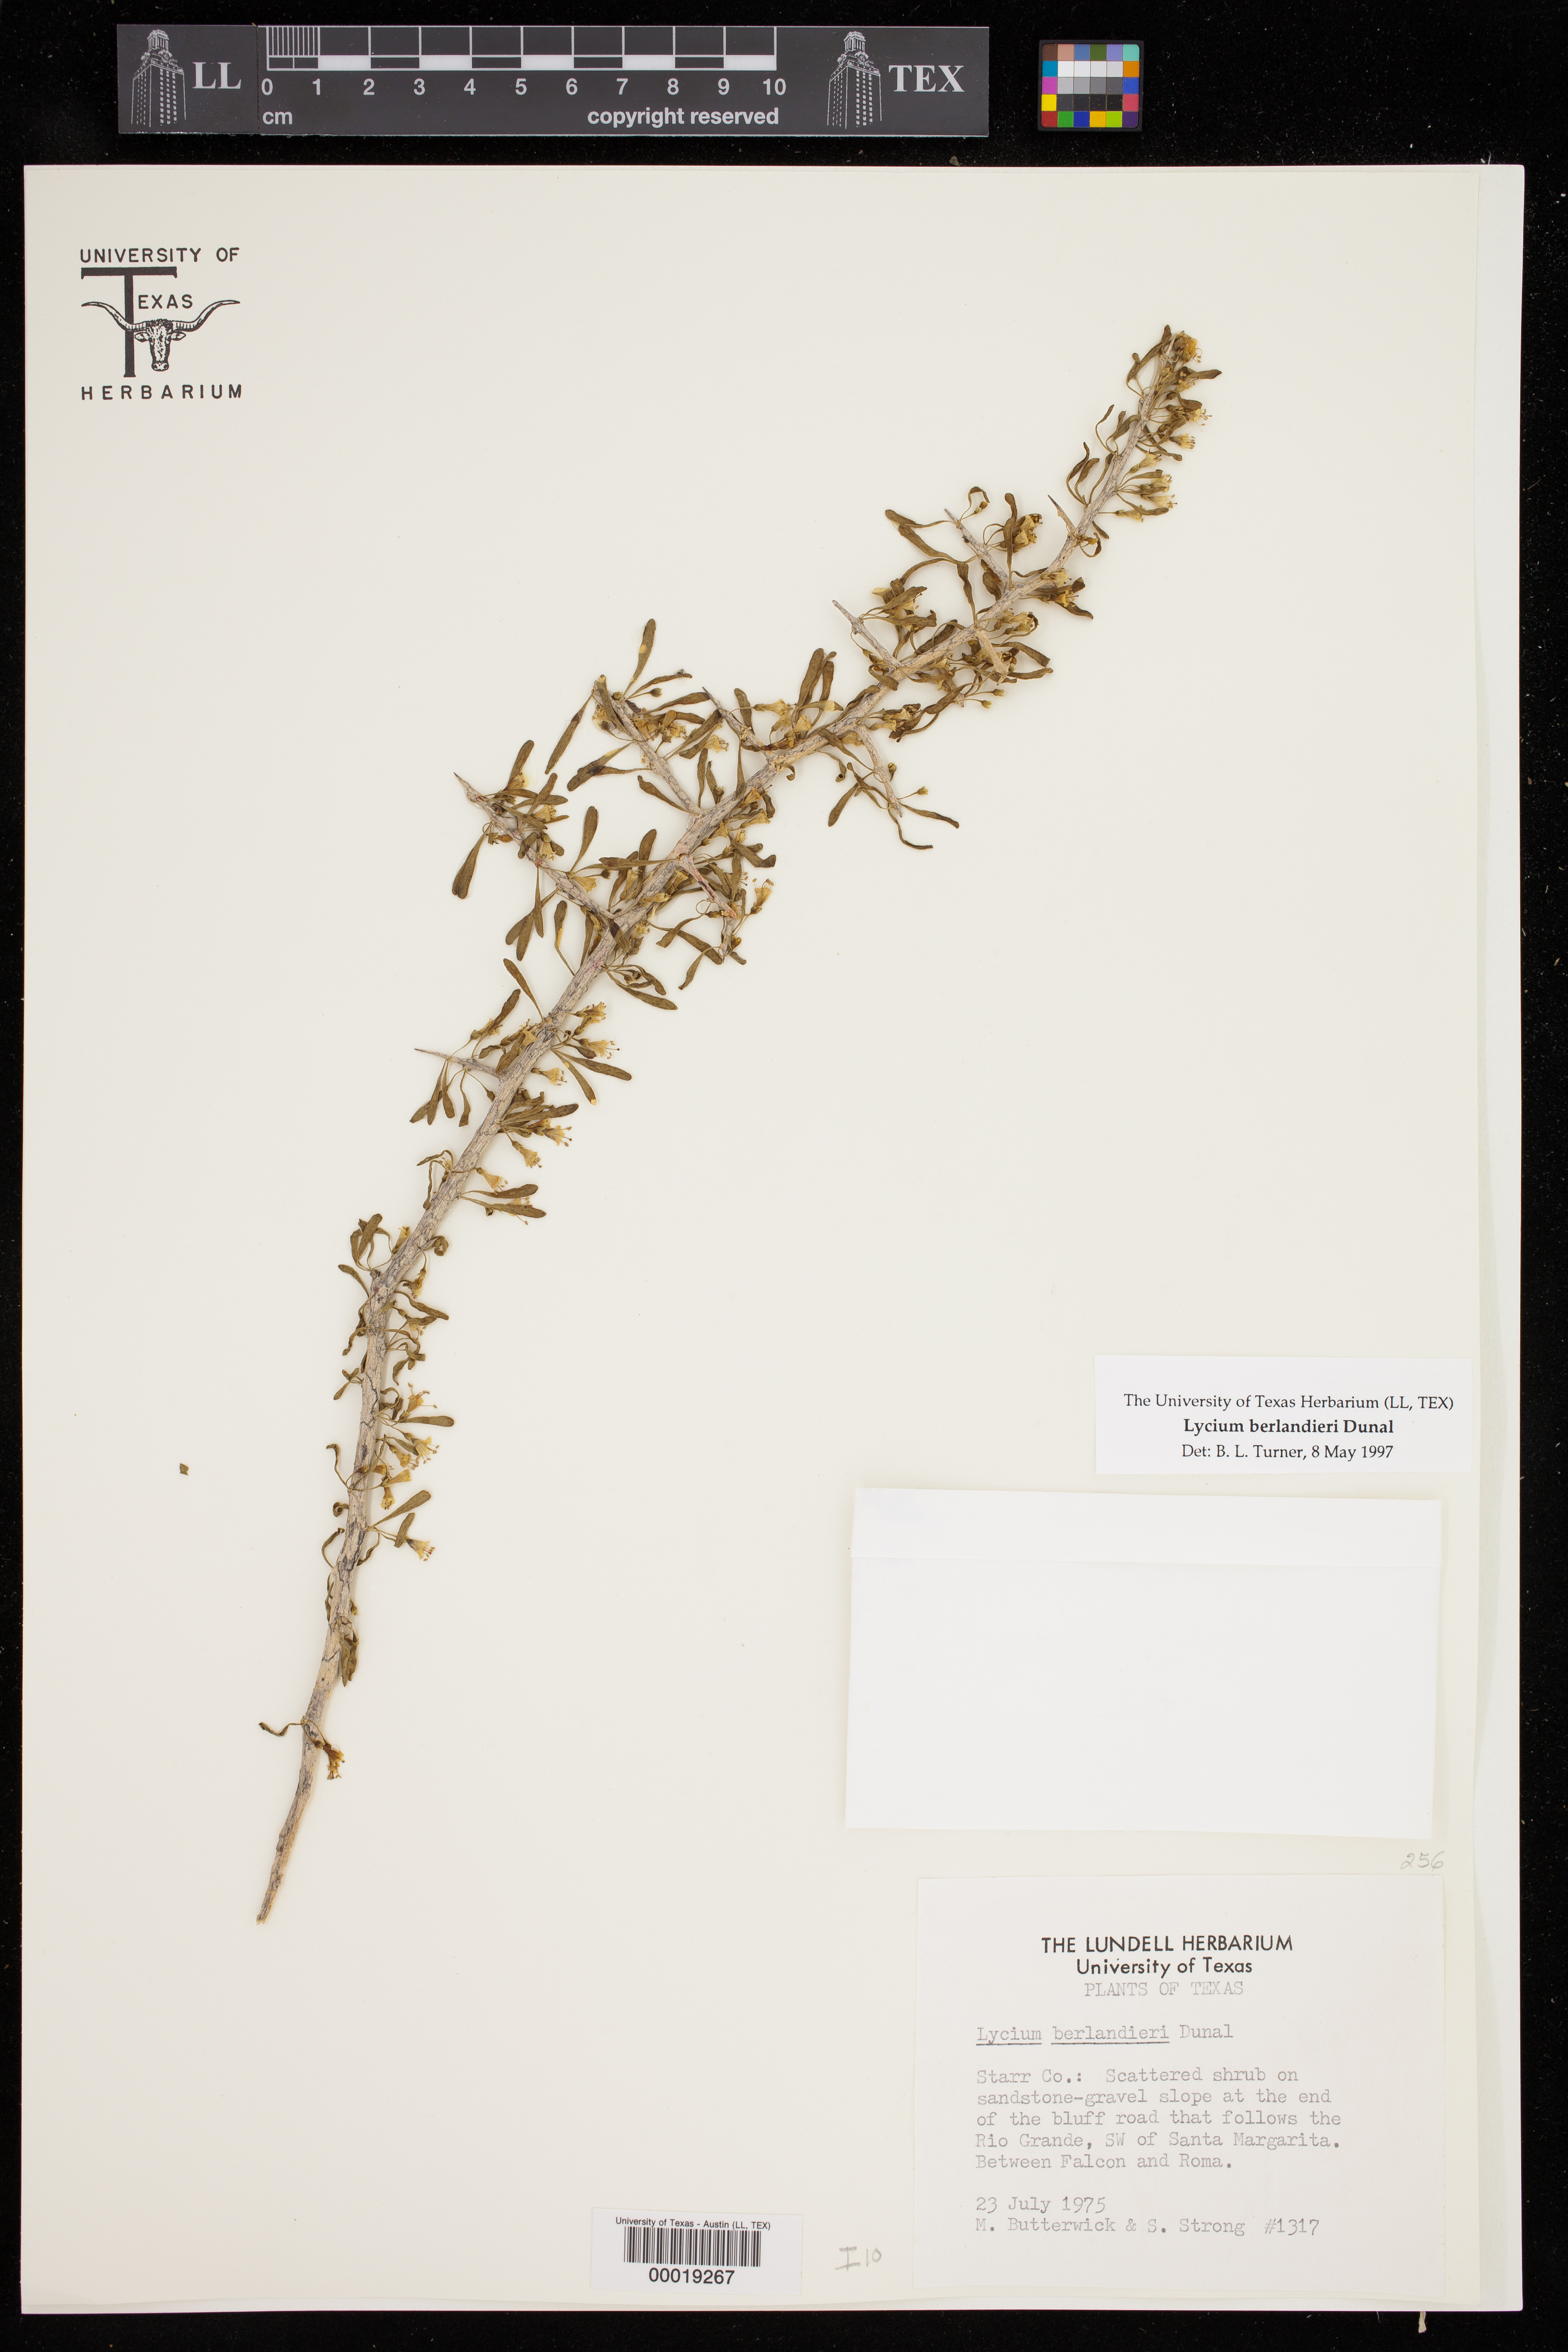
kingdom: Plantae
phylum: Tracheophyta
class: Magnoliopsida
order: Solanales
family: Solanaceae
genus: Lycium
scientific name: Lycium berlandieri
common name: Berlandier wolfberry
